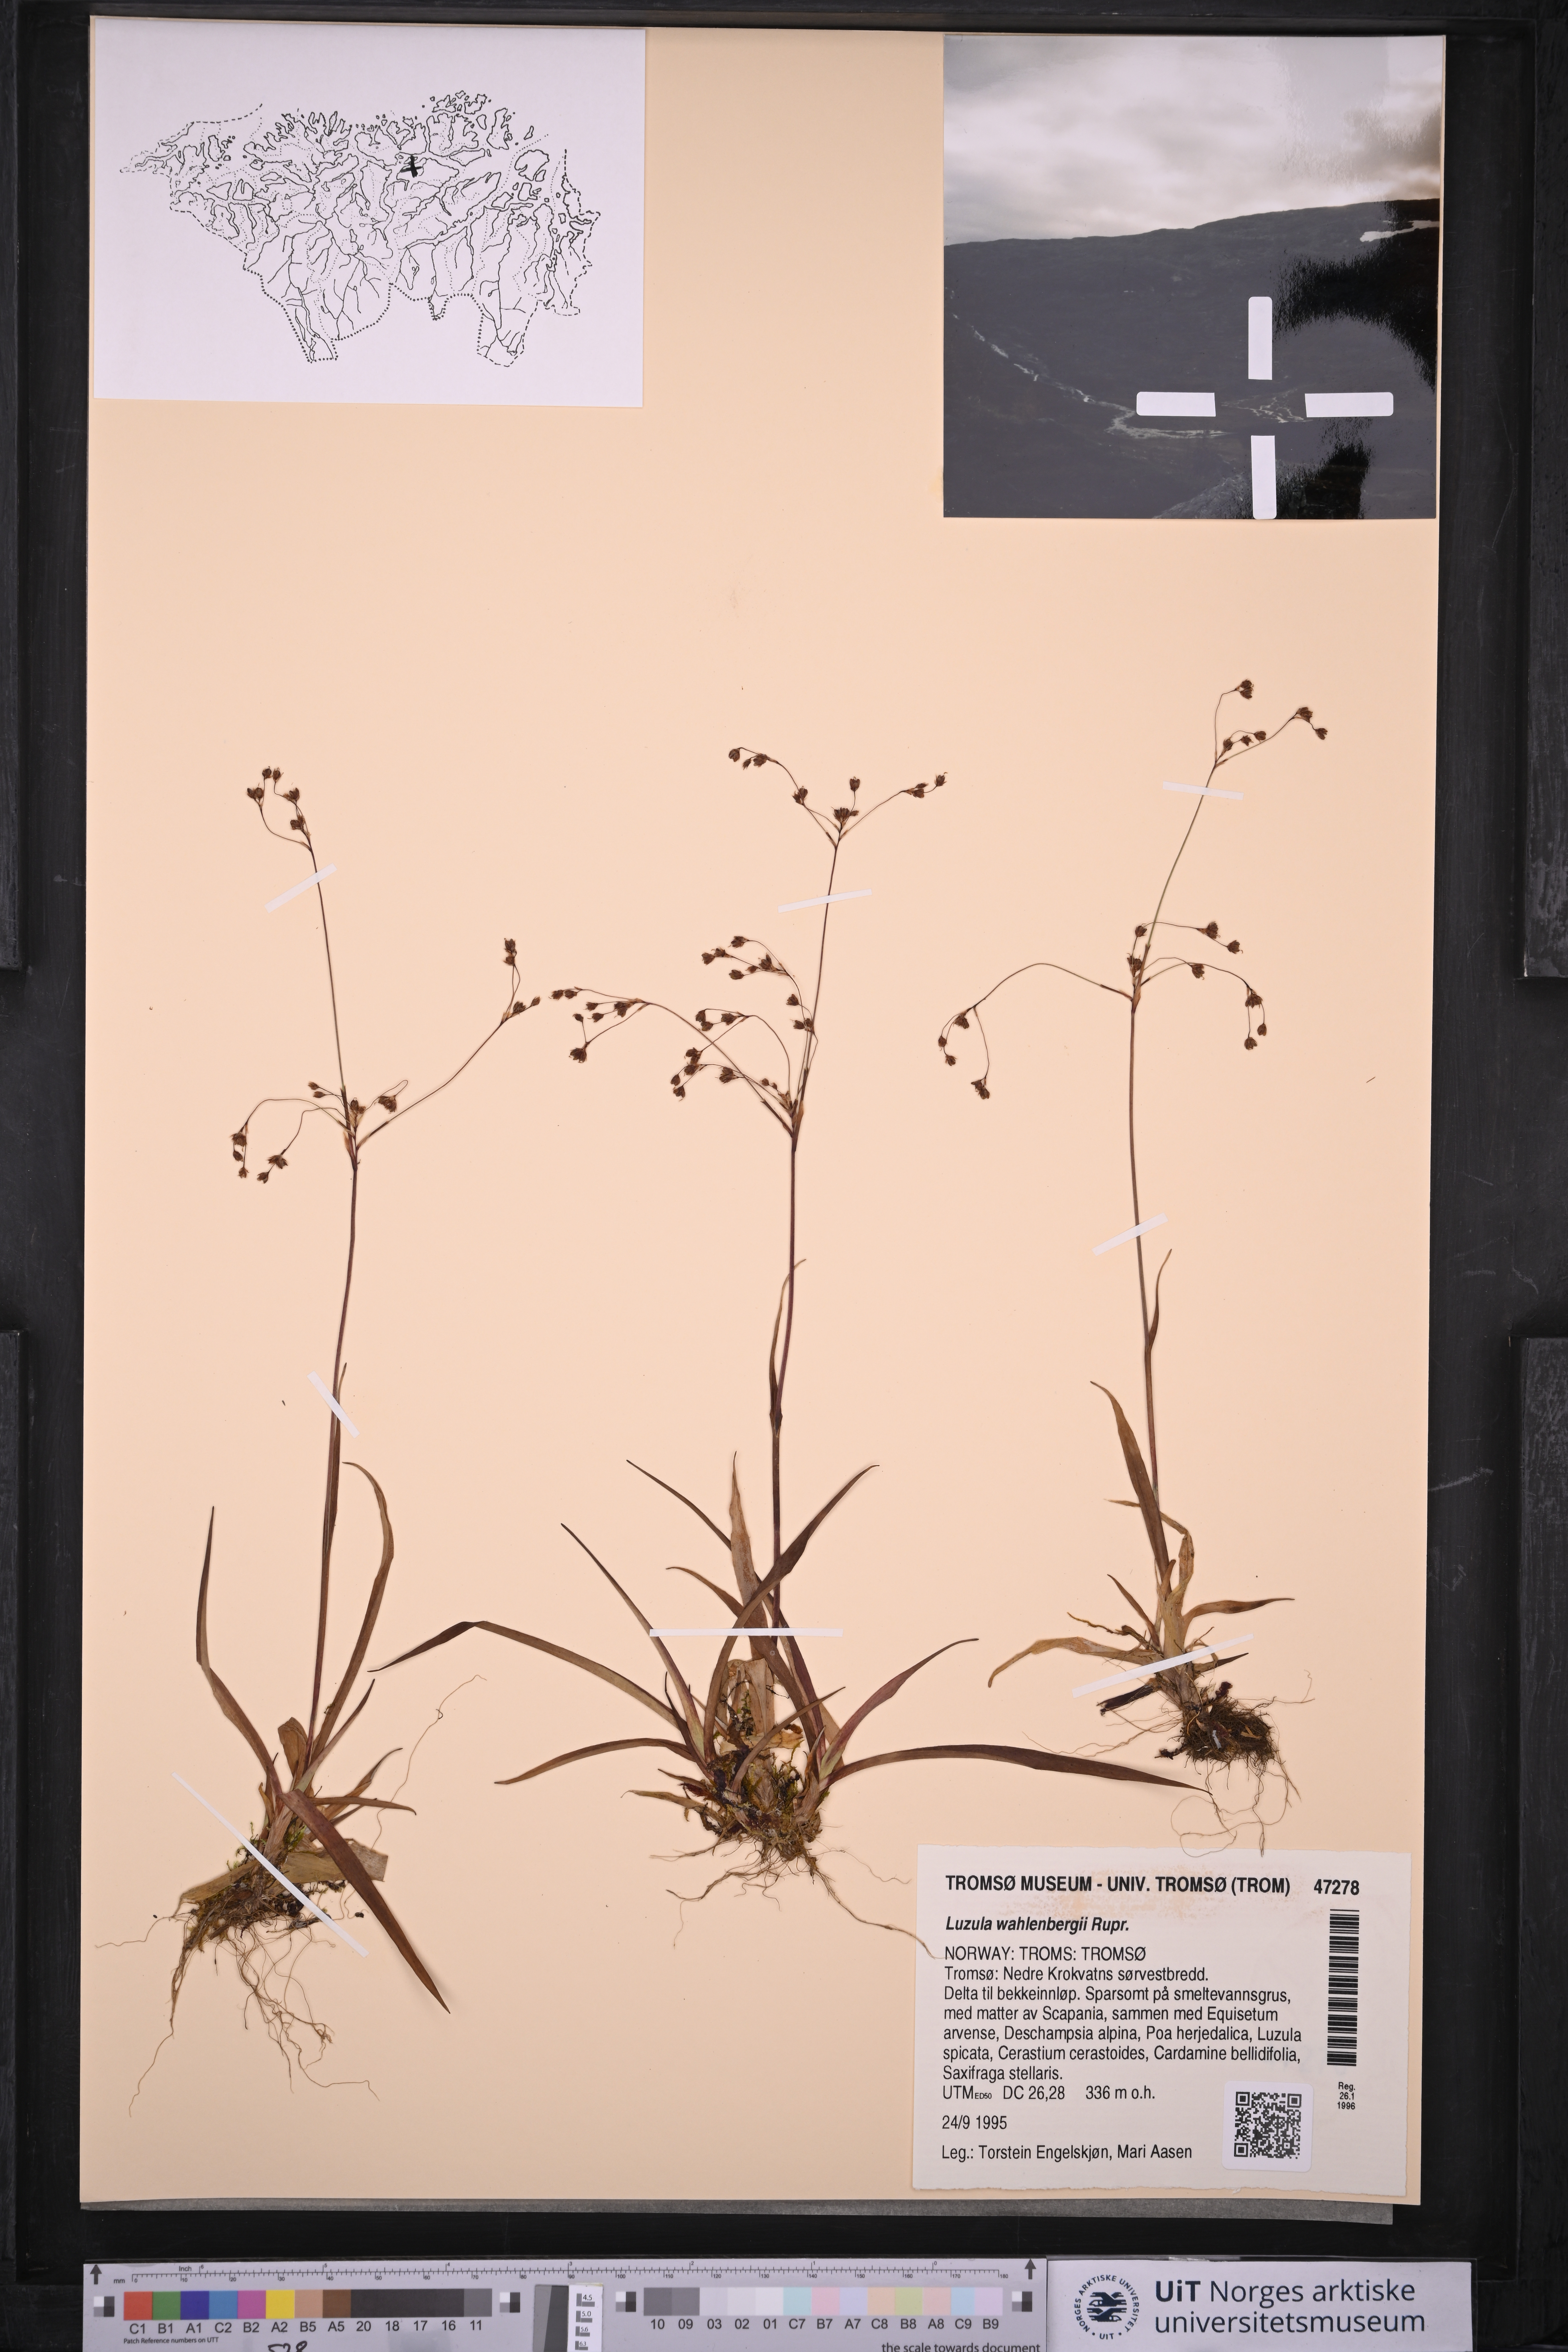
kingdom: Plantae
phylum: Tracheophyta
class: Liliopsida
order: Poales
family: Juncaceae
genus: Luzula
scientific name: Luzula wahlenbergii
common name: Wahlenberg's wood-rush
